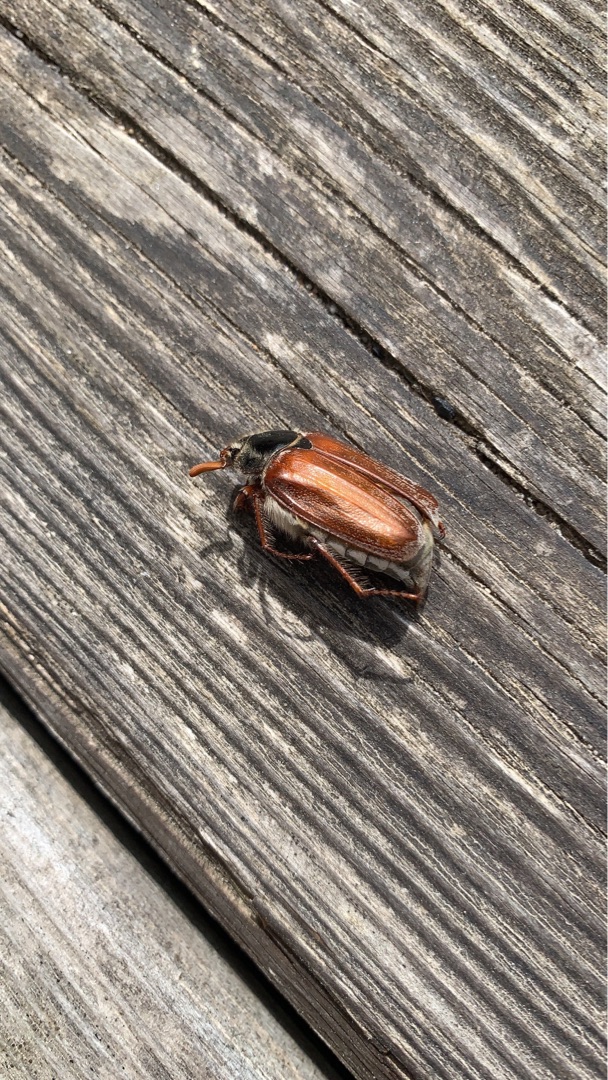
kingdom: Animalia
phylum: Arthropoda
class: Insecta
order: Coleoptera
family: Scarabaeidae
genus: Melolontha
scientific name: Melolontha melolontha
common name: Almindelig oldenborre
